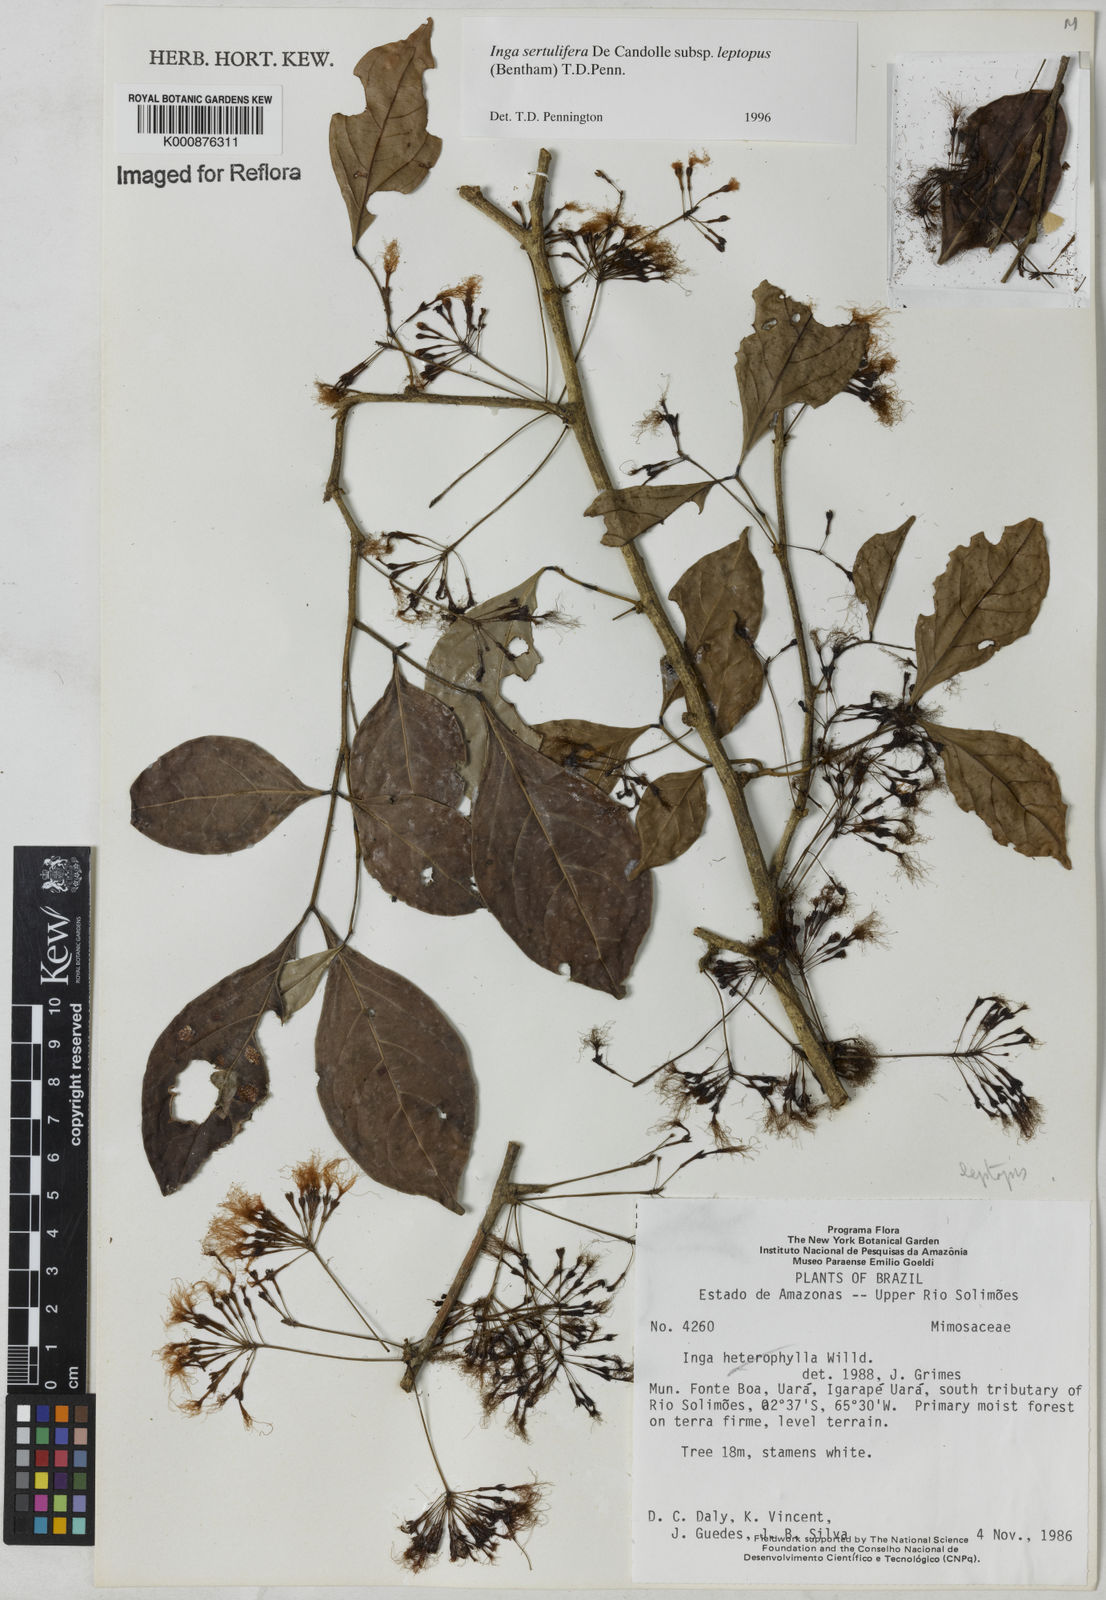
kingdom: Plantae
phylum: Tracheophyta
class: Magnoliopsida
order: Fabales
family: Fabaceae
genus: Inga
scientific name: Inga sertulifera
